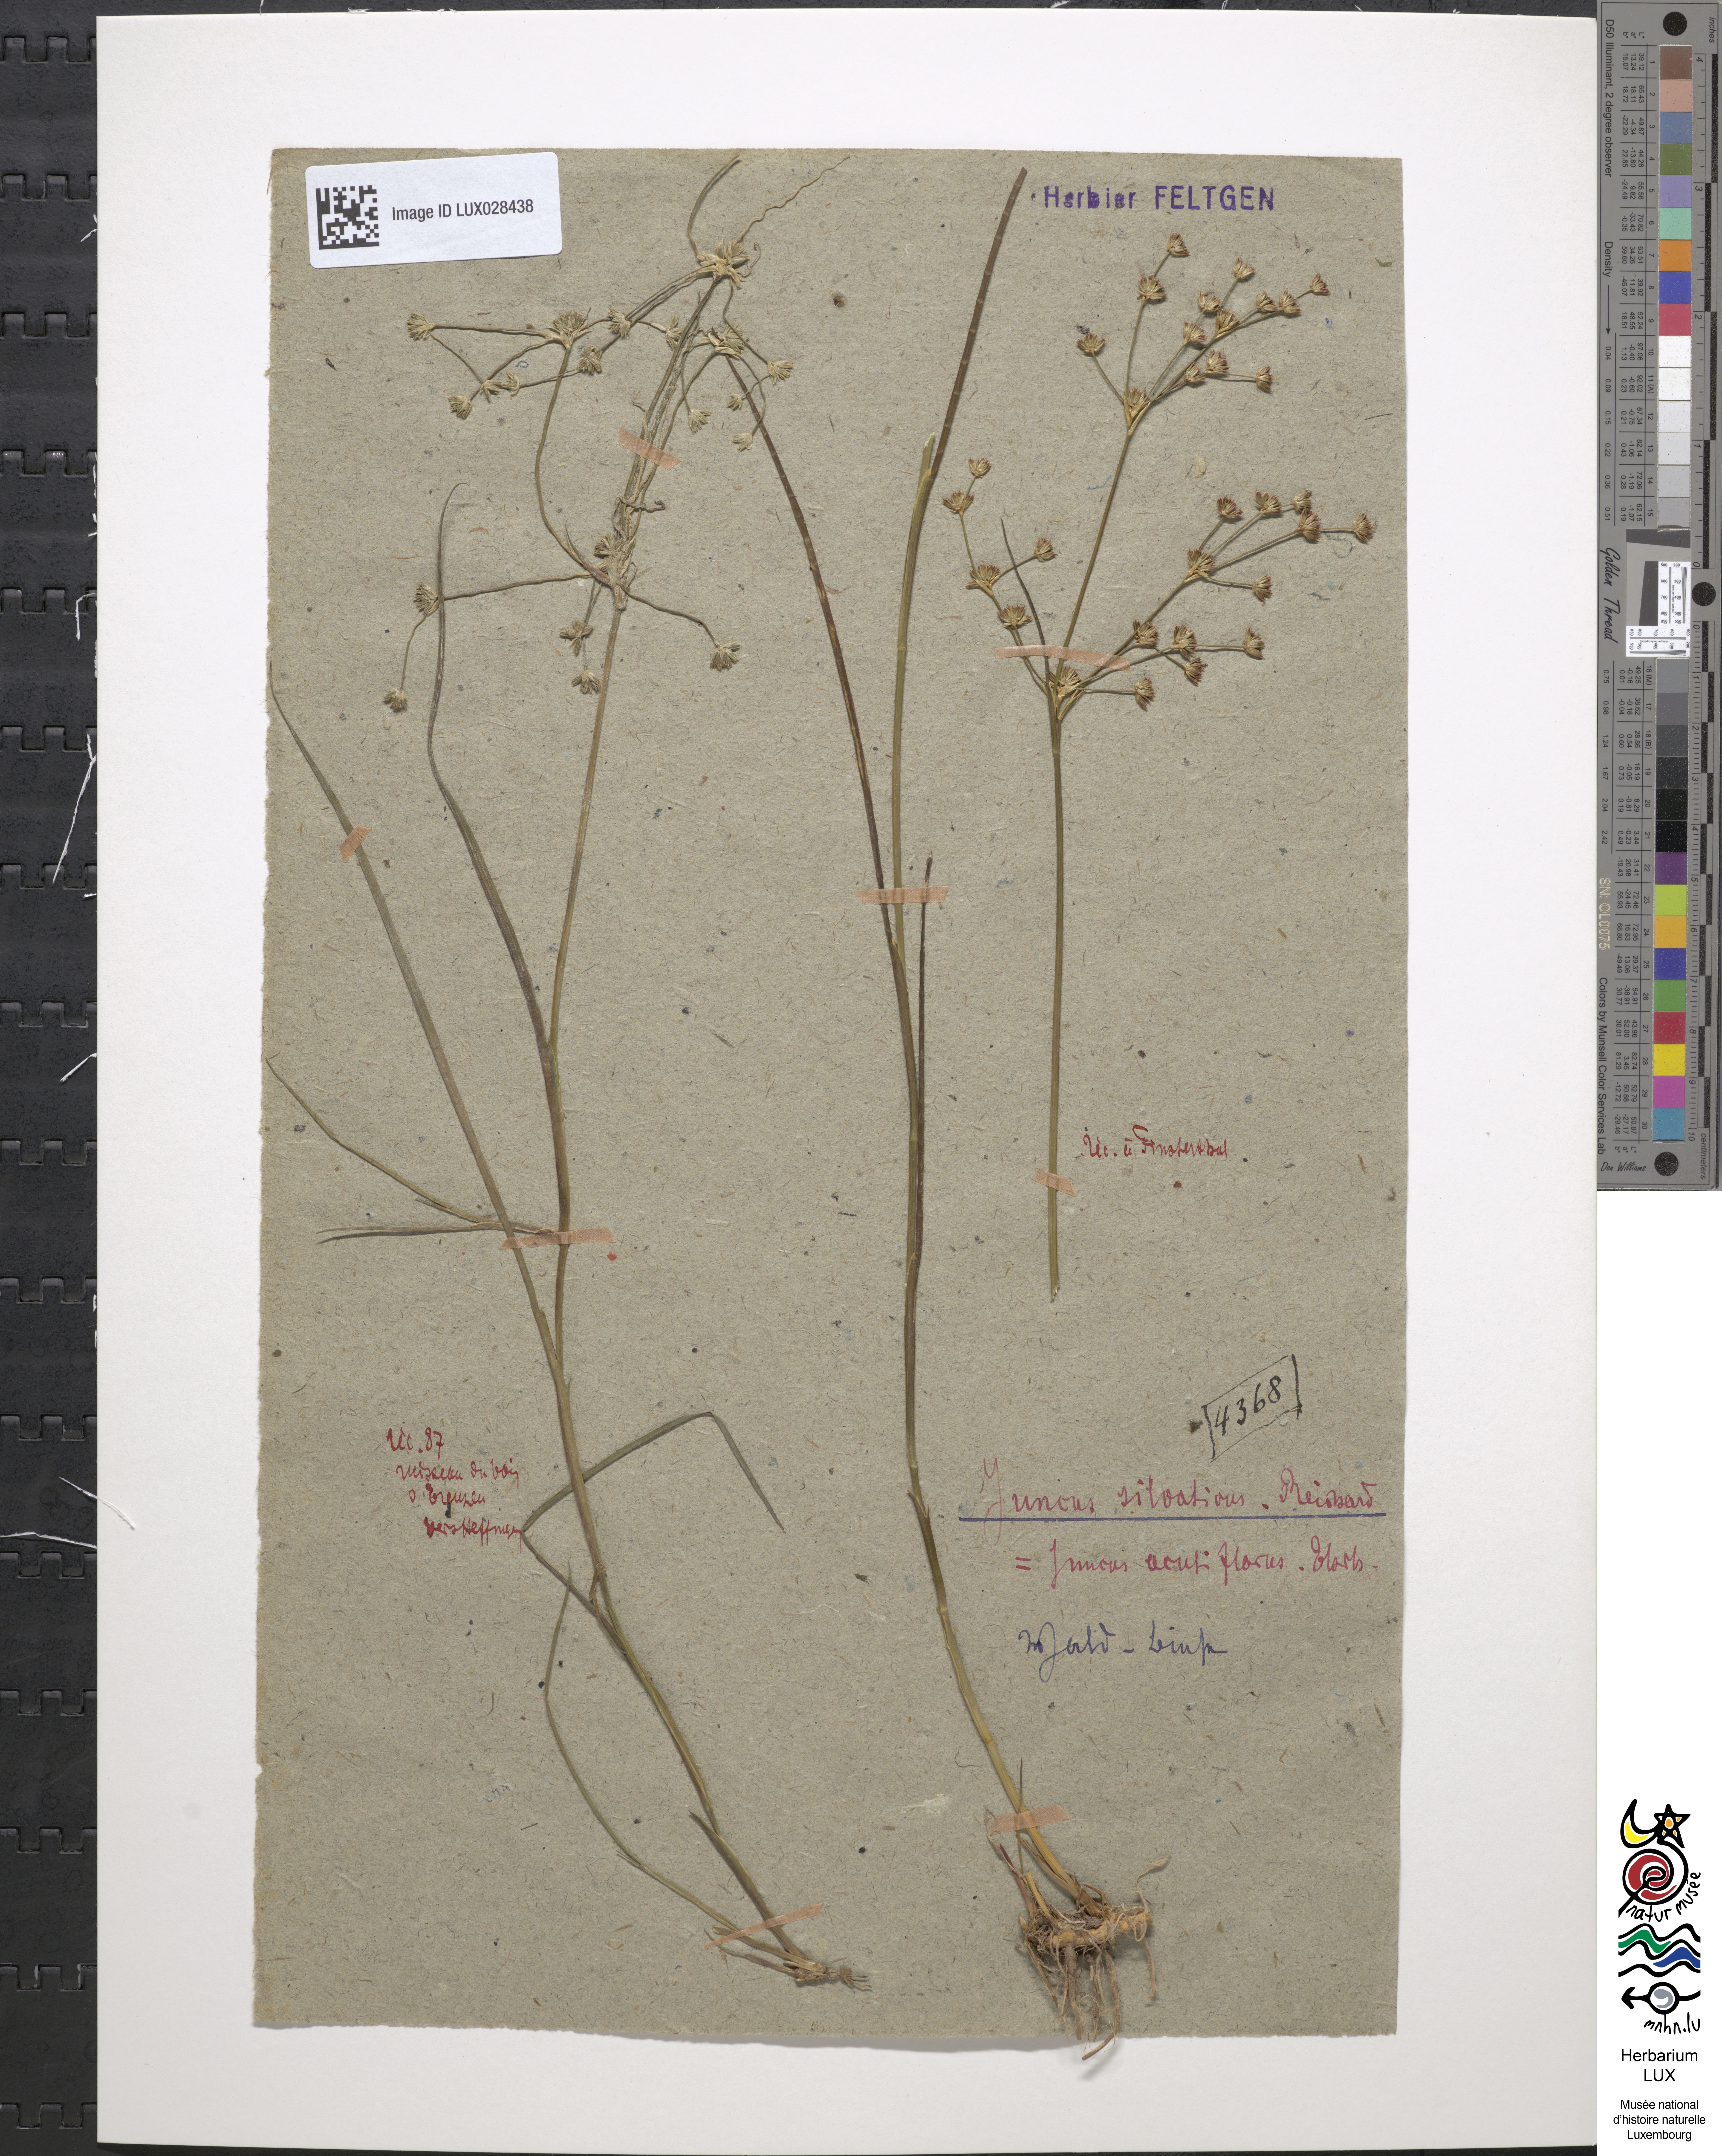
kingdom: Plantae
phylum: Tracheophyta
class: Liliopsida
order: Poales
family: Juncaceae
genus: Juncus
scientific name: Juncus acutiflorus
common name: Sharp-flowered rush
